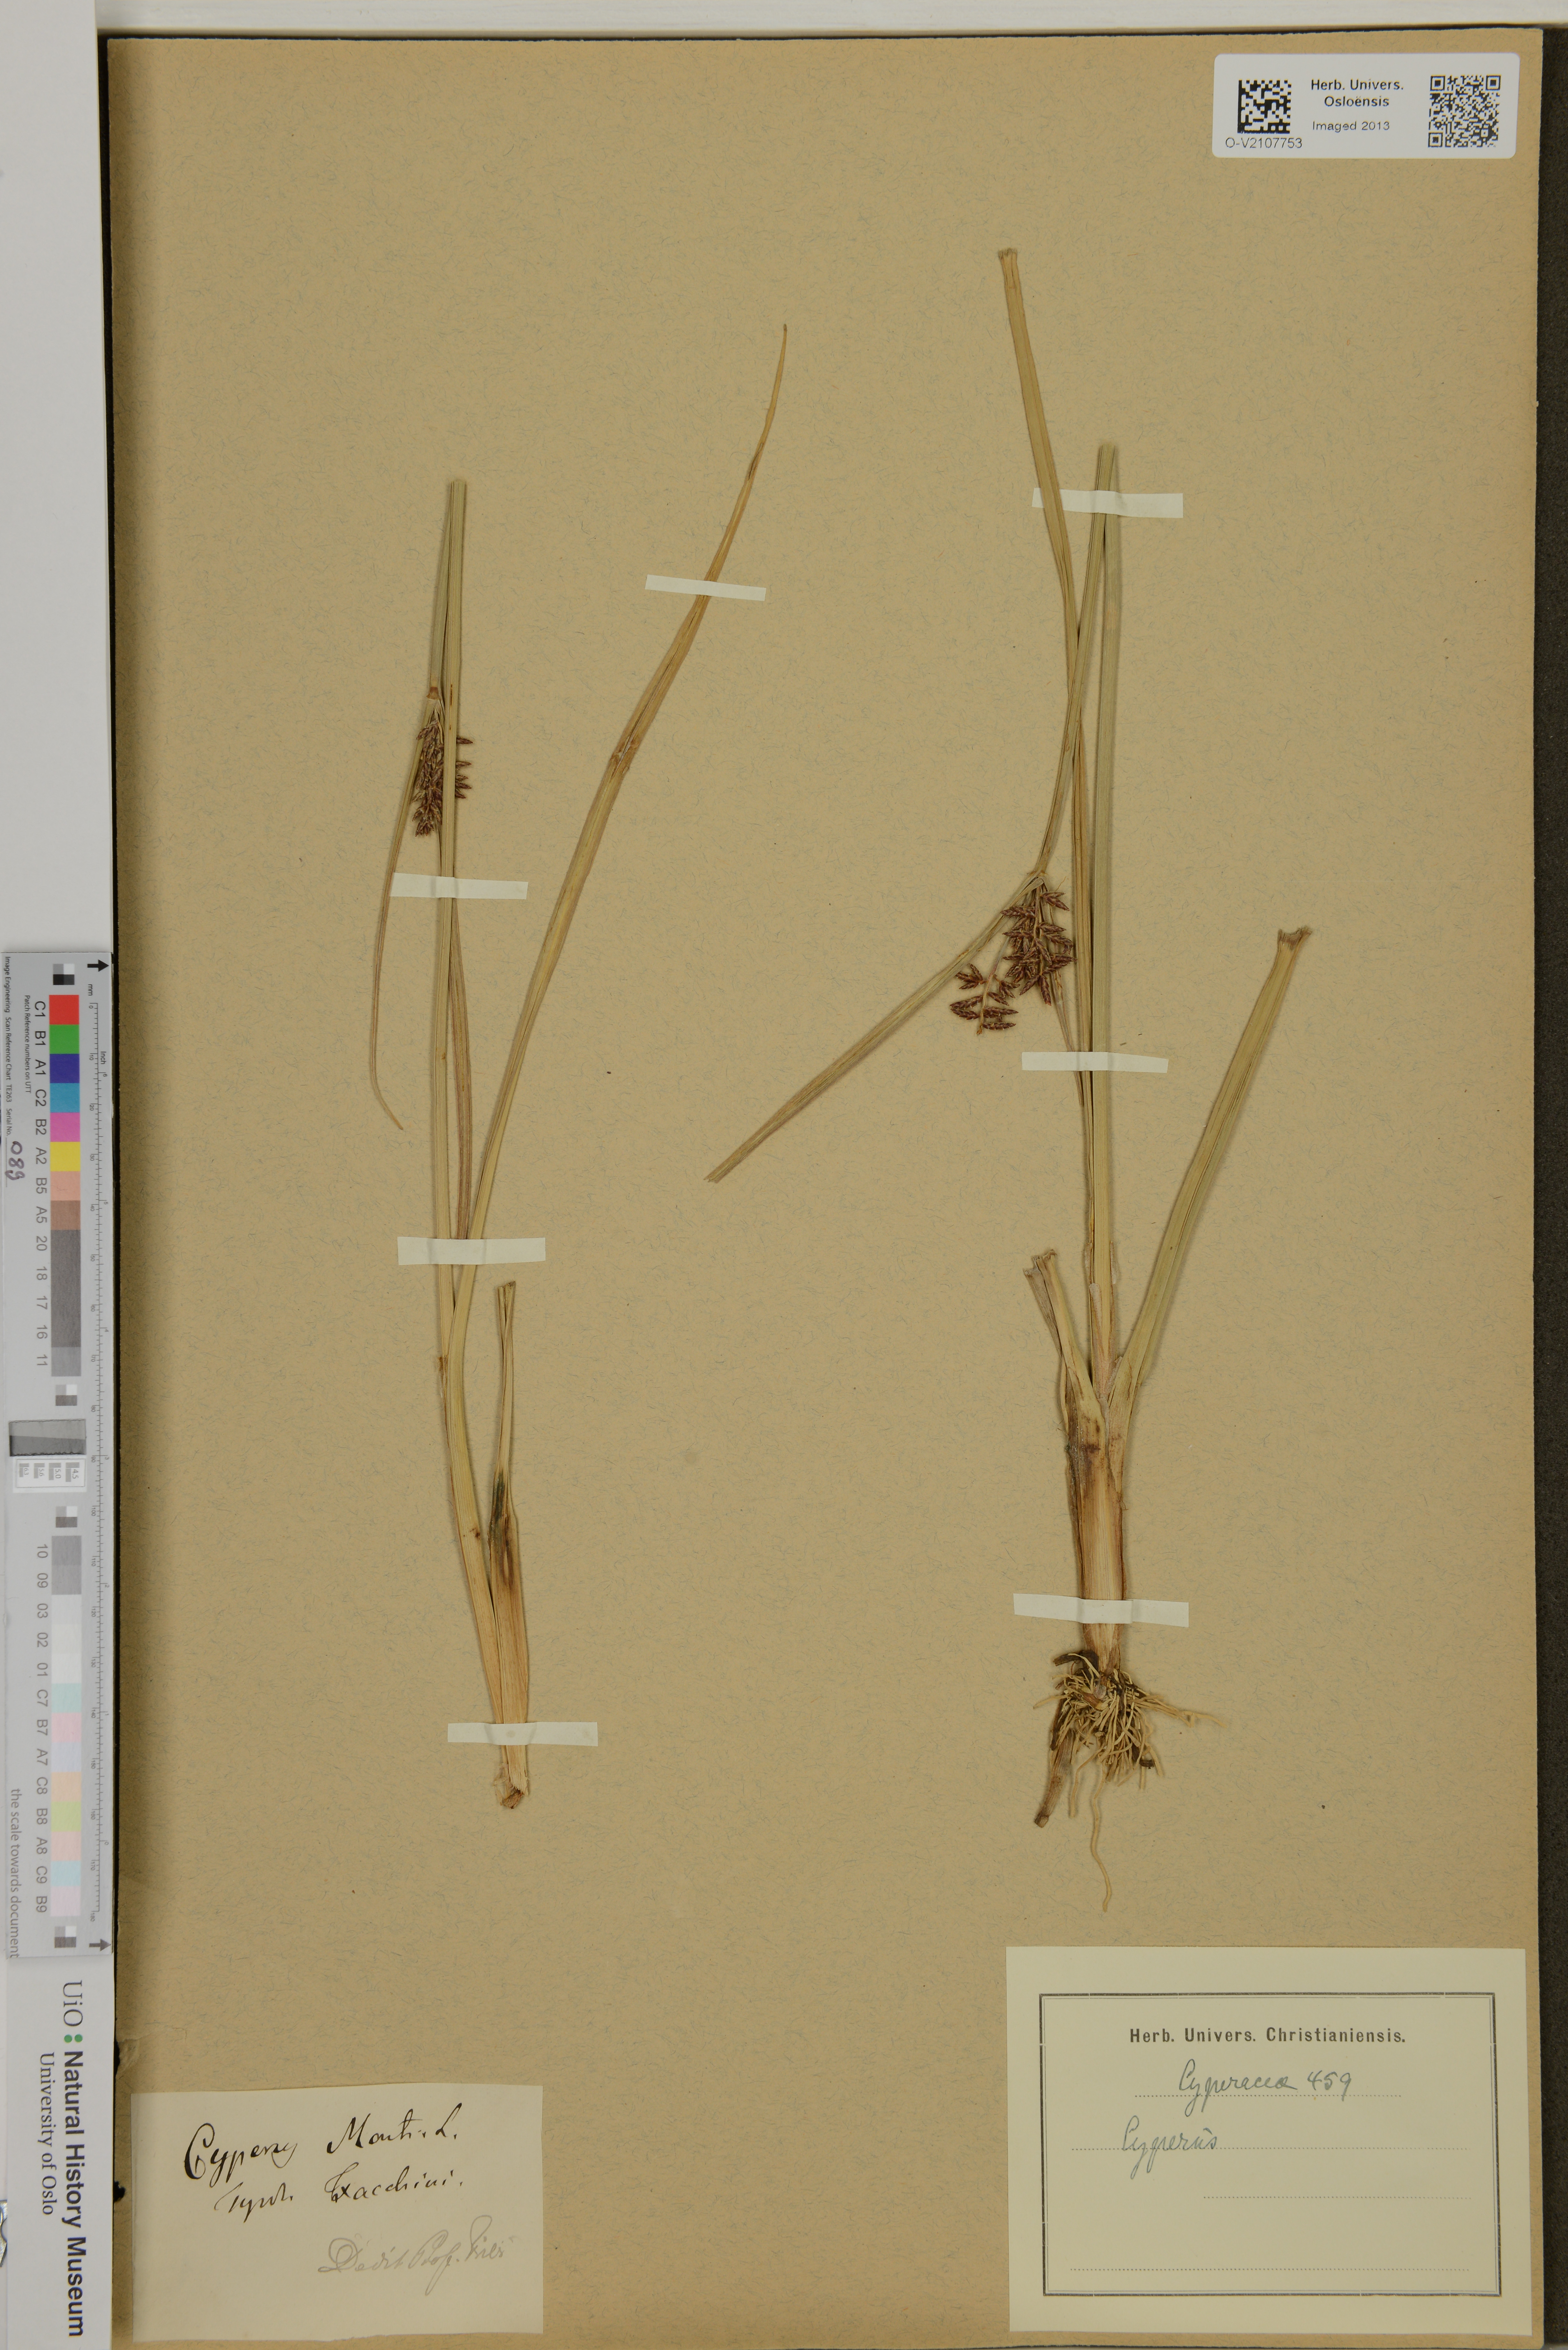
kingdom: Plantae
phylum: Tracheophyta
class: Liliopsida
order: Poales
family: Cyperaceae
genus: Cyperus
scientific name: Cyperus serotinus
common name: Tidalmarsh flatsedge
